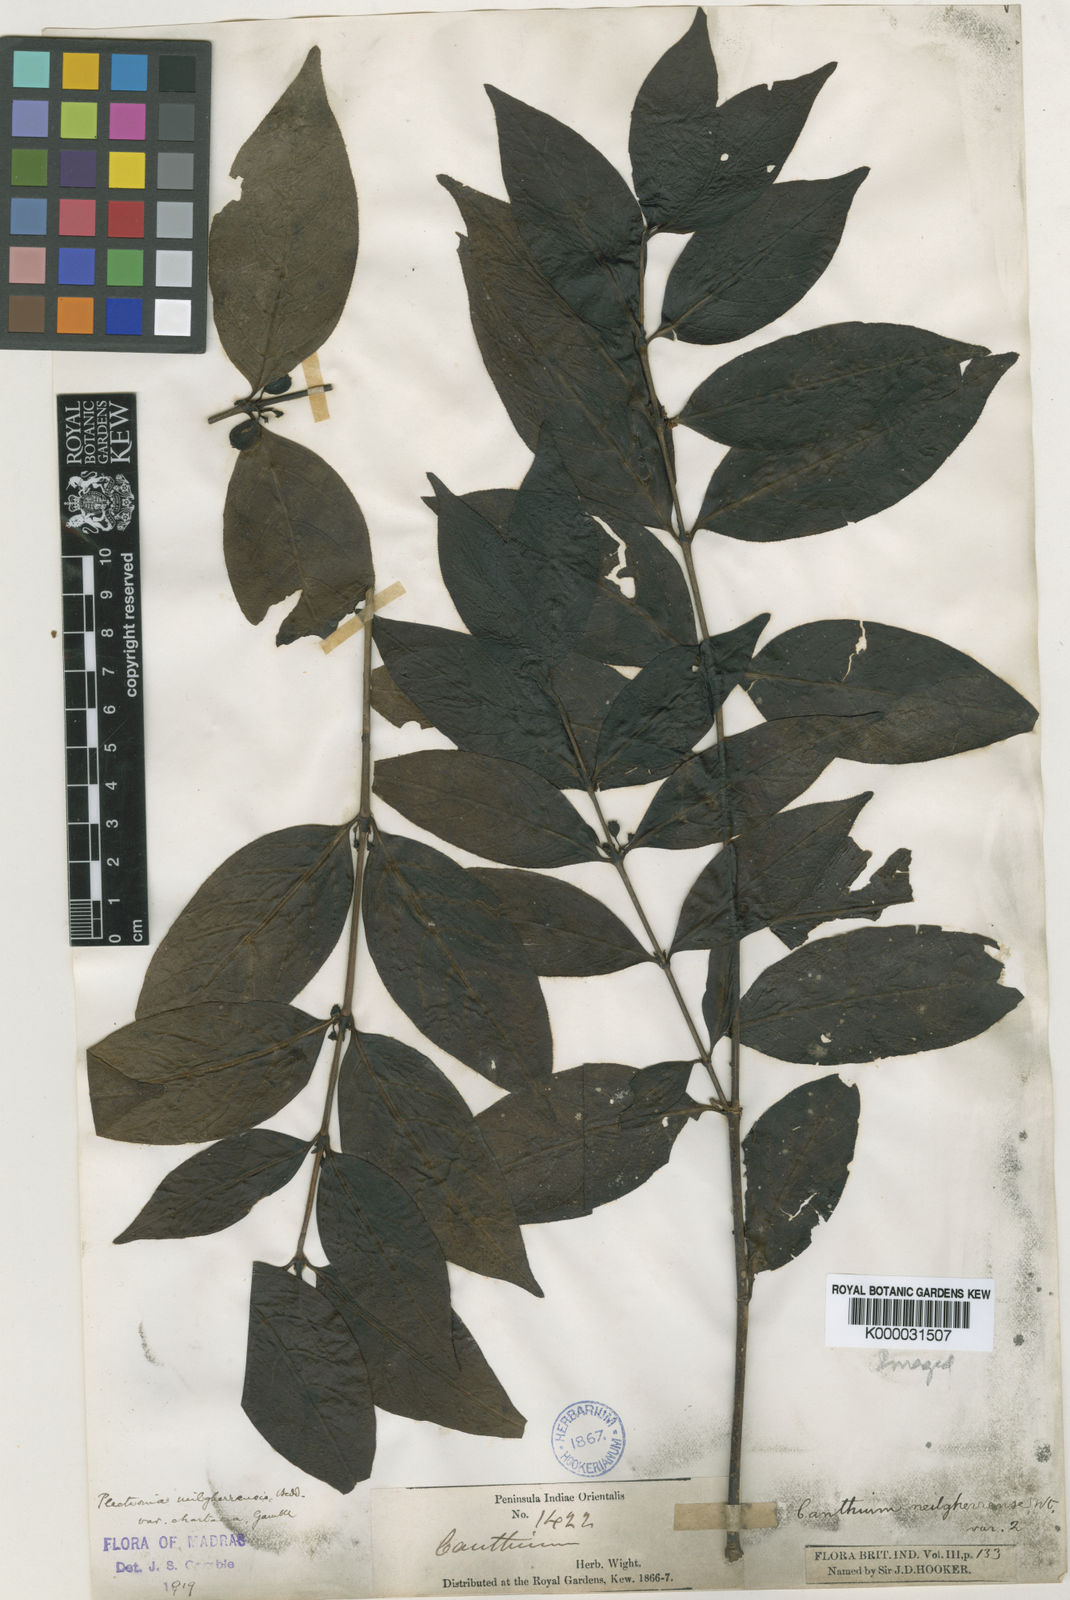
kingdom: Plantae
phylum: Tracheophyta
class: Magnoliopsida
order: Gentianales
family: Rubiaceae
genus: Canthiumera
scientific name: Canthiumera neilgherrensis
